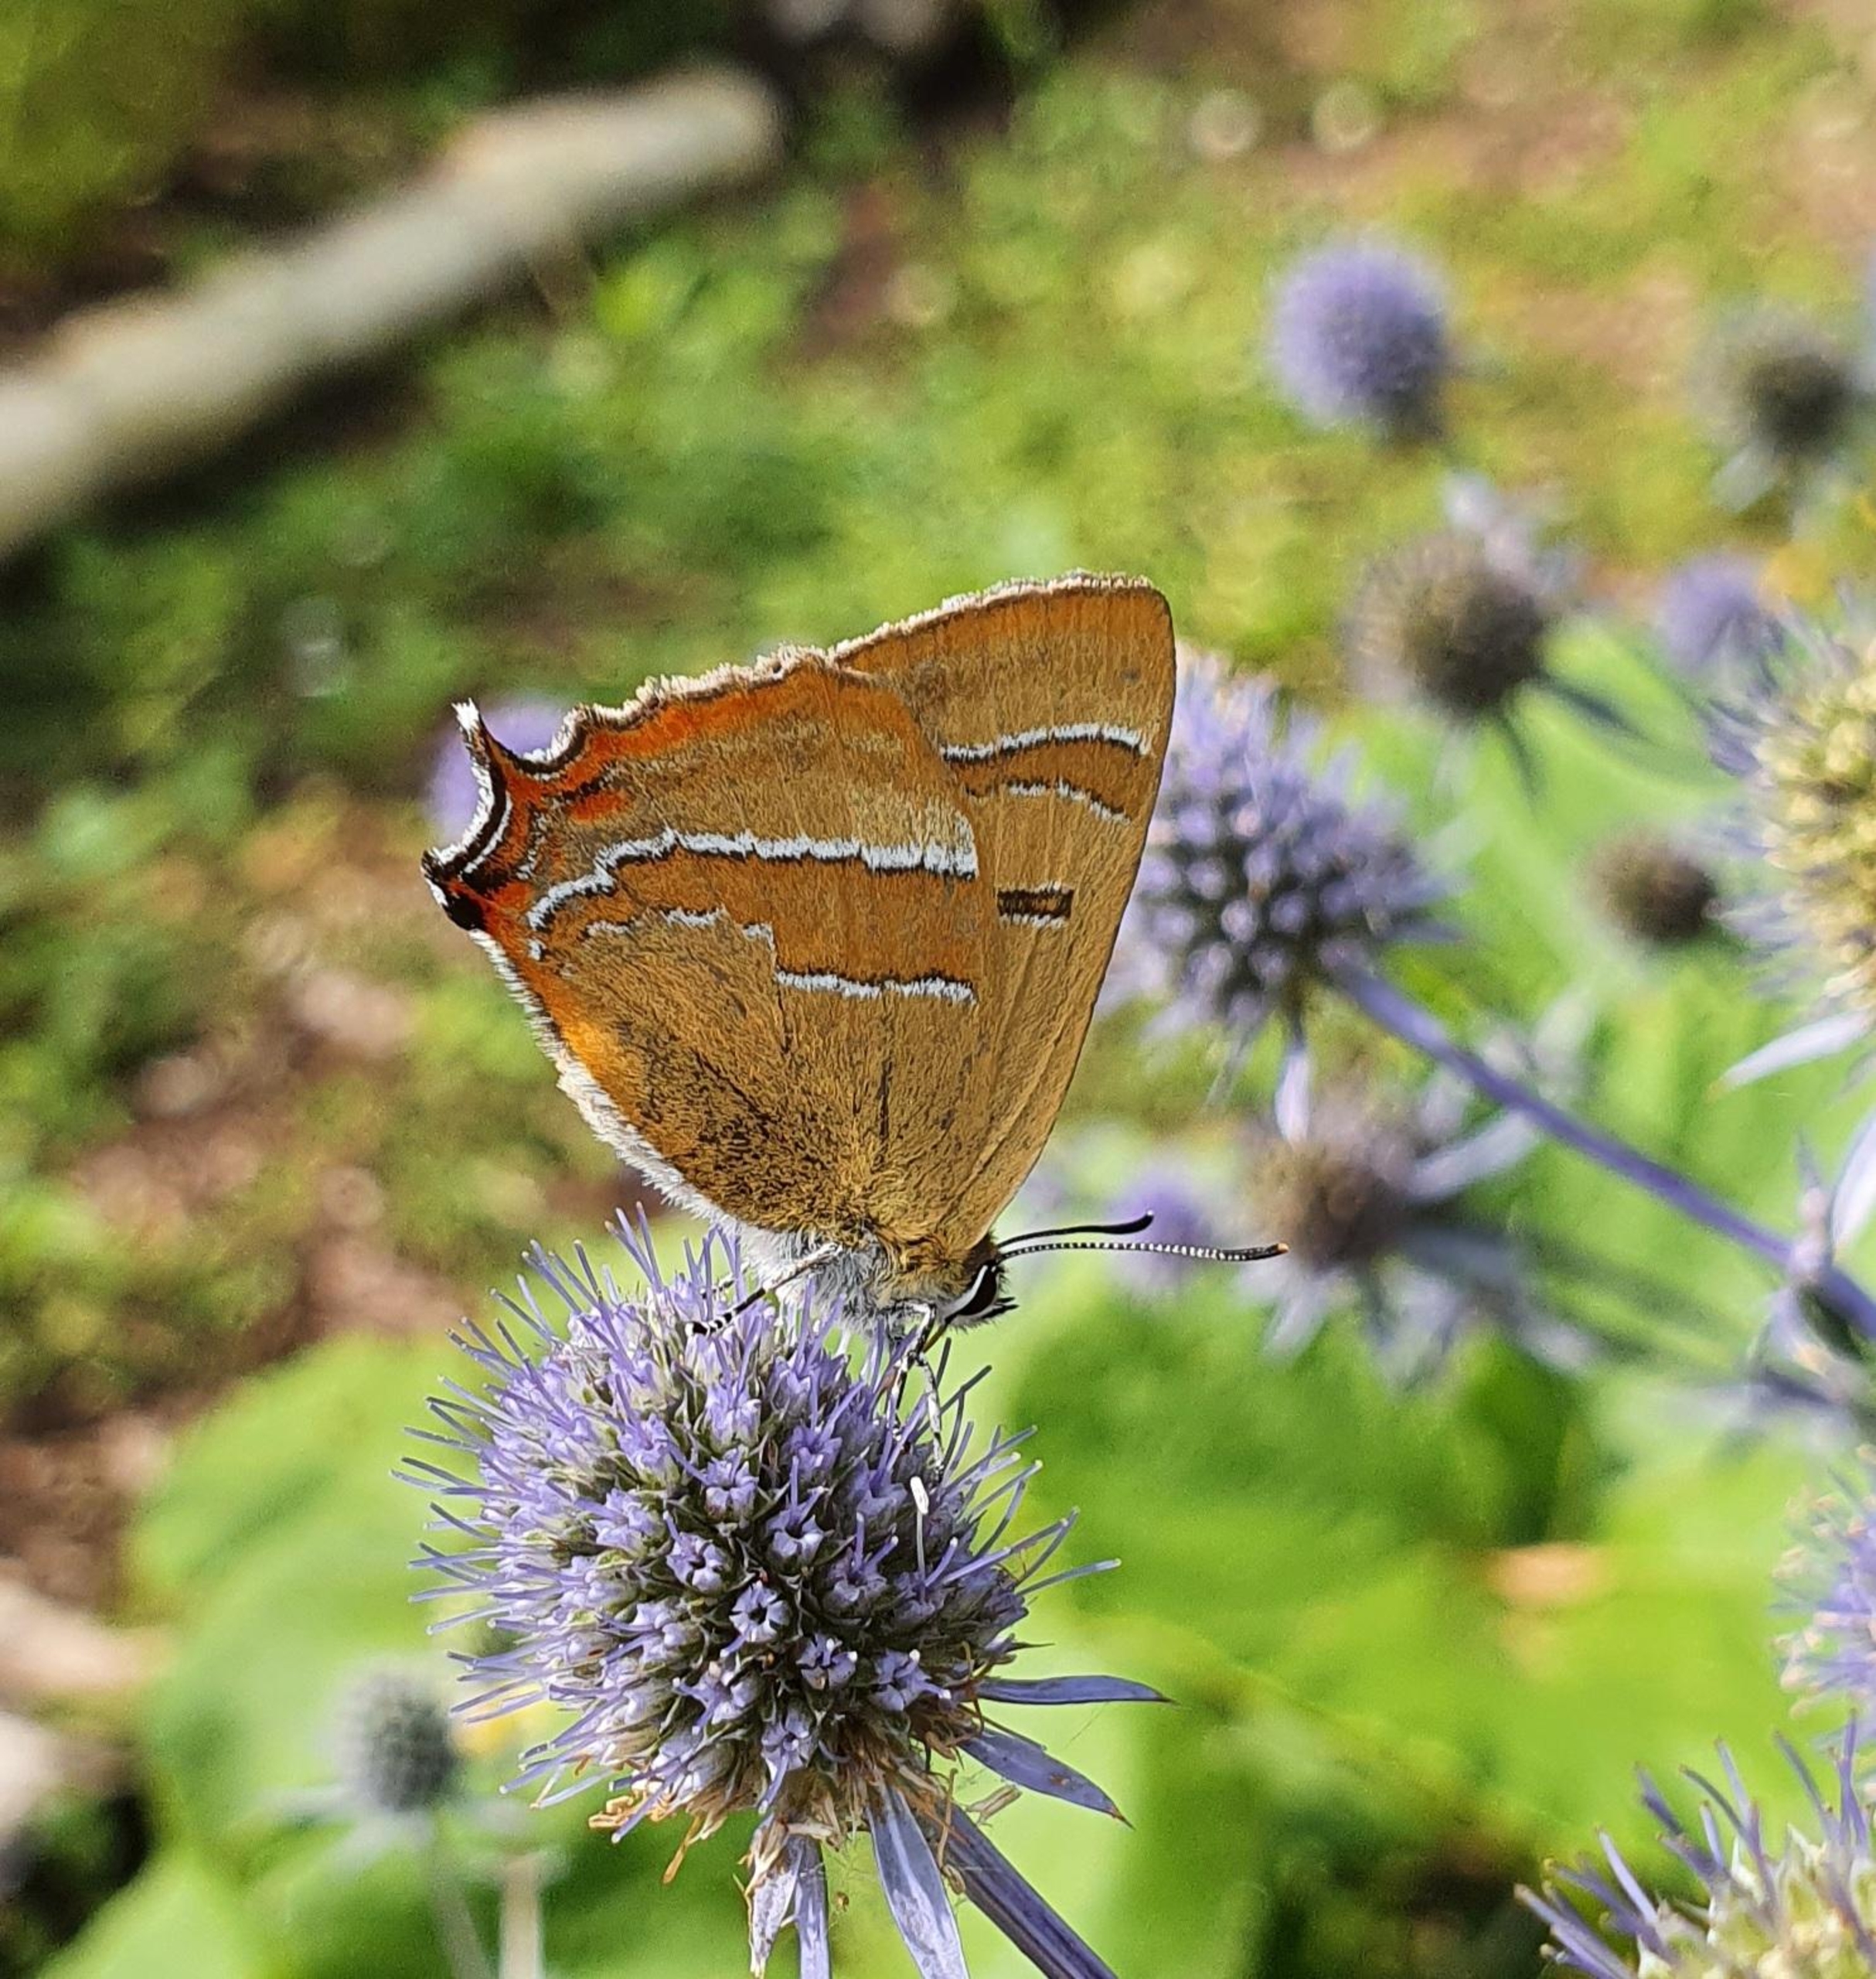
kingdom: Animalia
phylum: Arthropoda
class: Insecta
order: Lepidoptera
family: Lycaenidae
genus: Thecla
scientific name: Thecla betulae
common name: Guldhale
